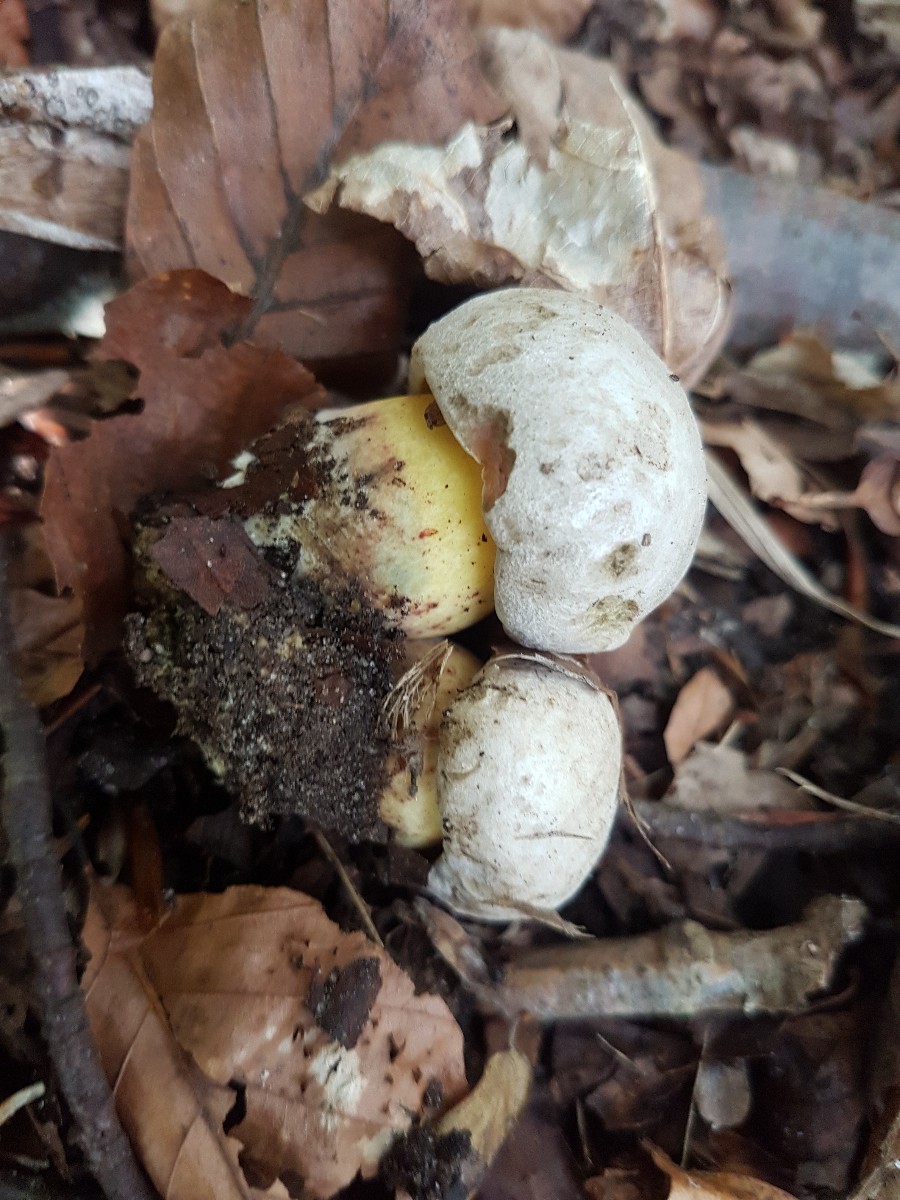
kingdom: Fungi
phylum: Basidiomycota
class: Agaricomycetes
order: Boletales
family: Boletaceae
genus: Caloboletus
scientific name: Caloboletus radicans
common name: rod-rørhat
